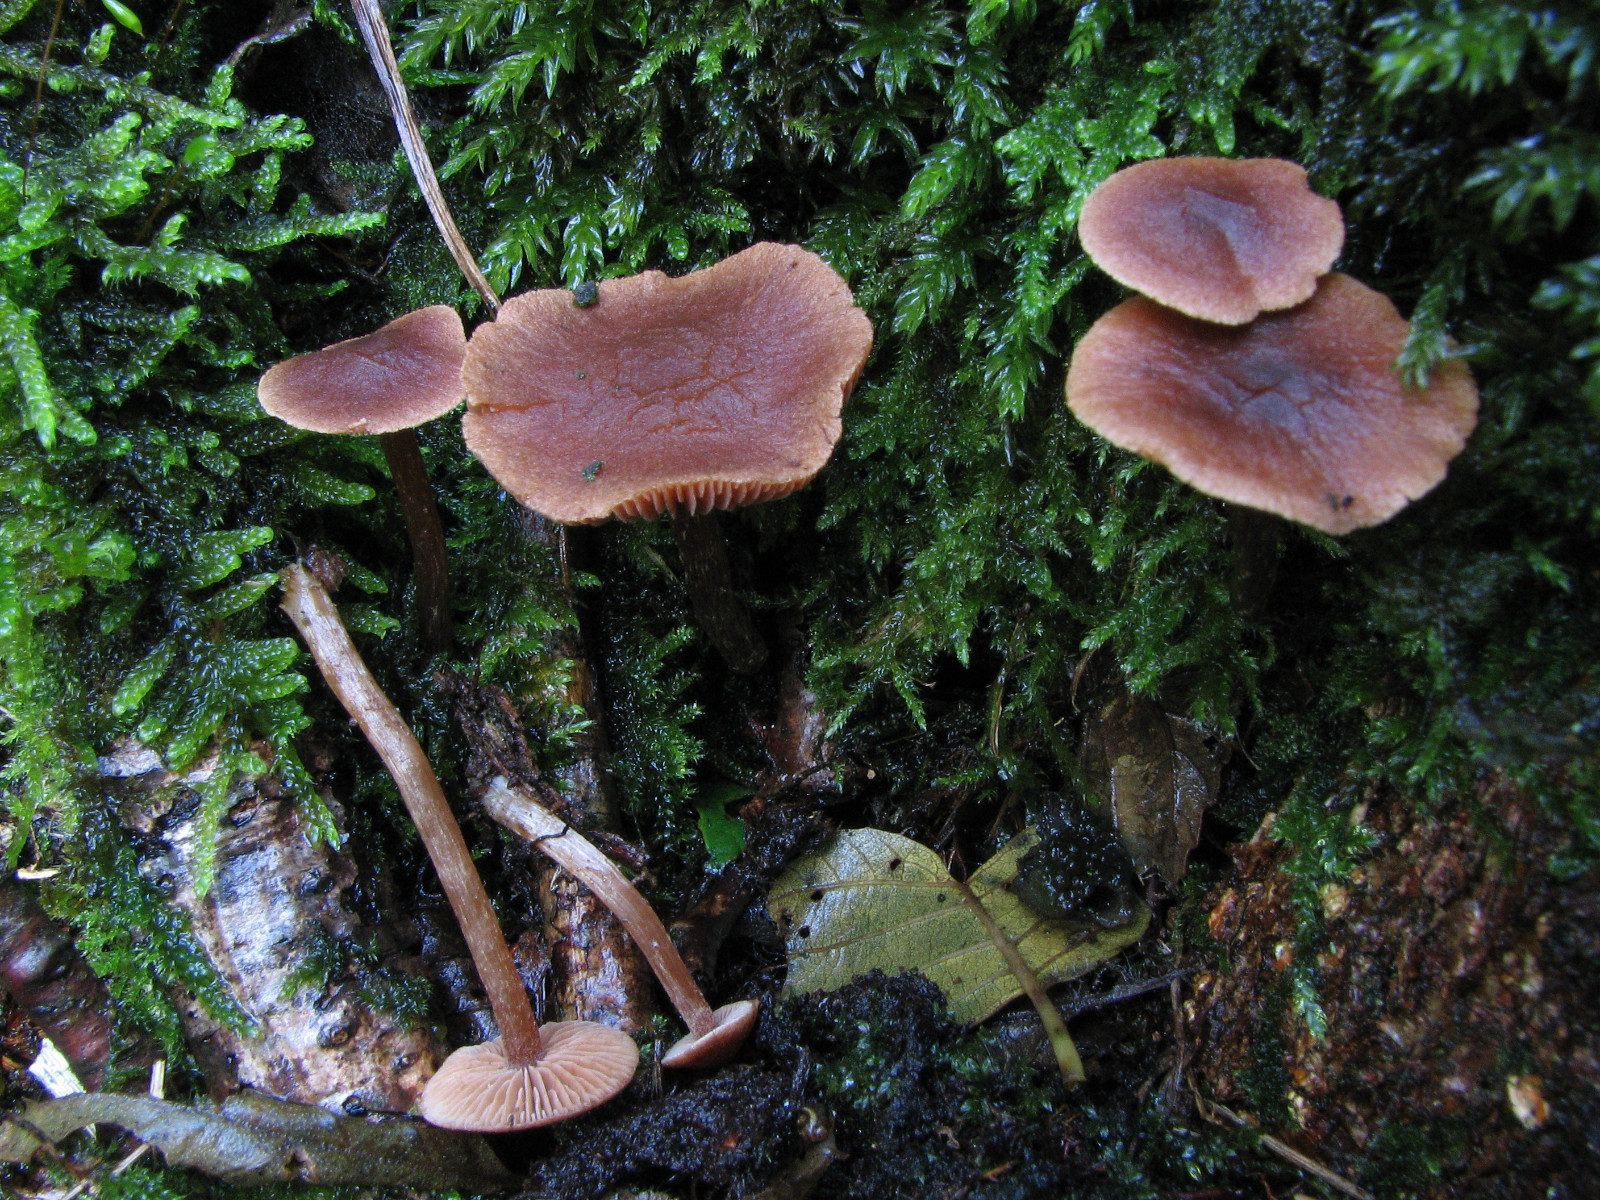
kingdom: Fungi
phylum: Basidiomycota
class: Agaricomycetes
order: Agaricales
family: Hymenogastraceae
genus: Naucoria
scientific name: Naucoria sphagneti
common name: lysrandet knaphat
